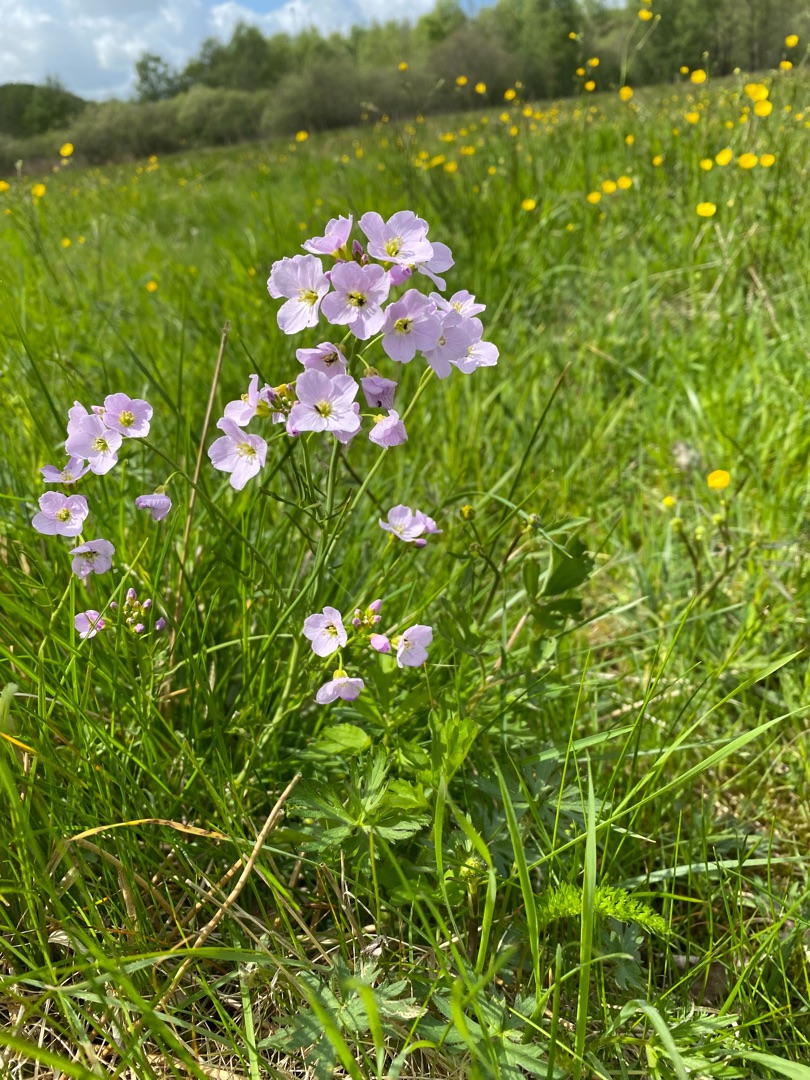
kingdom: Plantae
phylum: Tracheophyta
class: Magnoliopsida
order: Brassicales
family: Brassicaceae
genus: Cardamine
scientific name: Cardamine pratensis
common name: Engkarse
